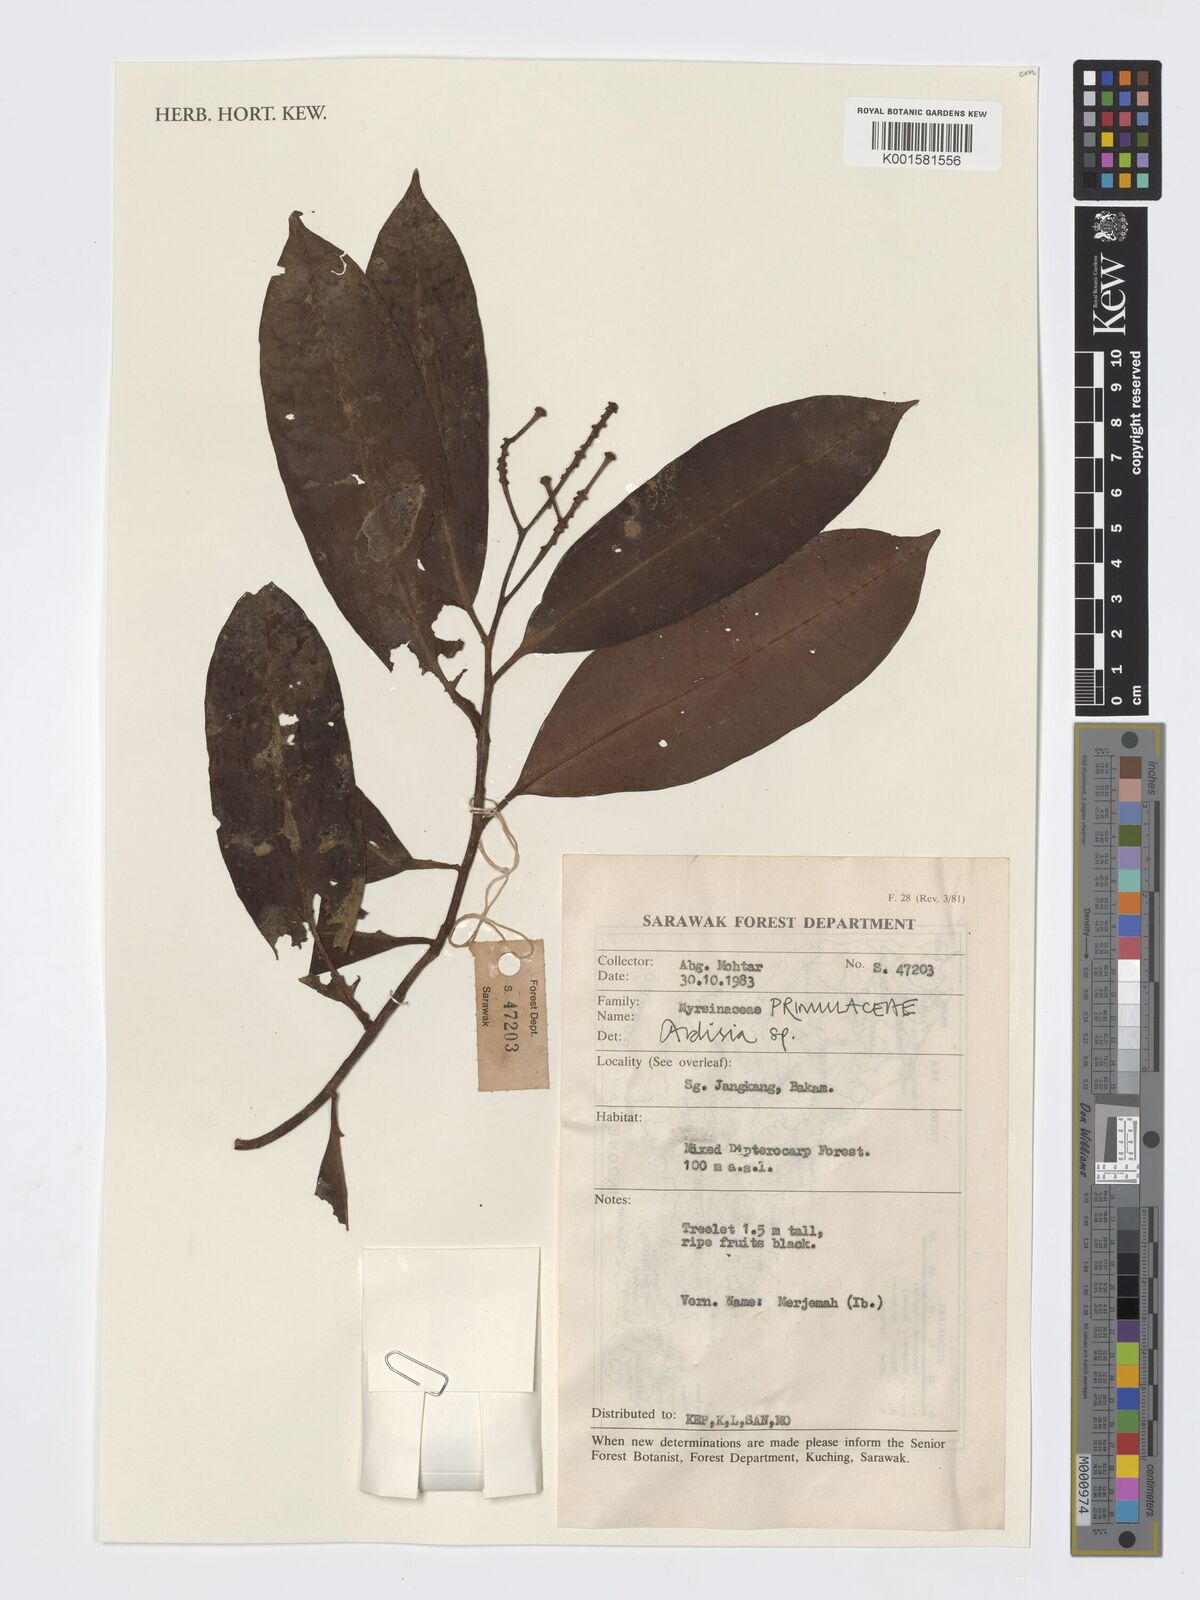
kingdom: Plantae
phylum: Tracheophyta
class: Magnoliopsida
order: Ericales
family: Primulaceae
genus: Ardisia
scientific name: Ardisia
